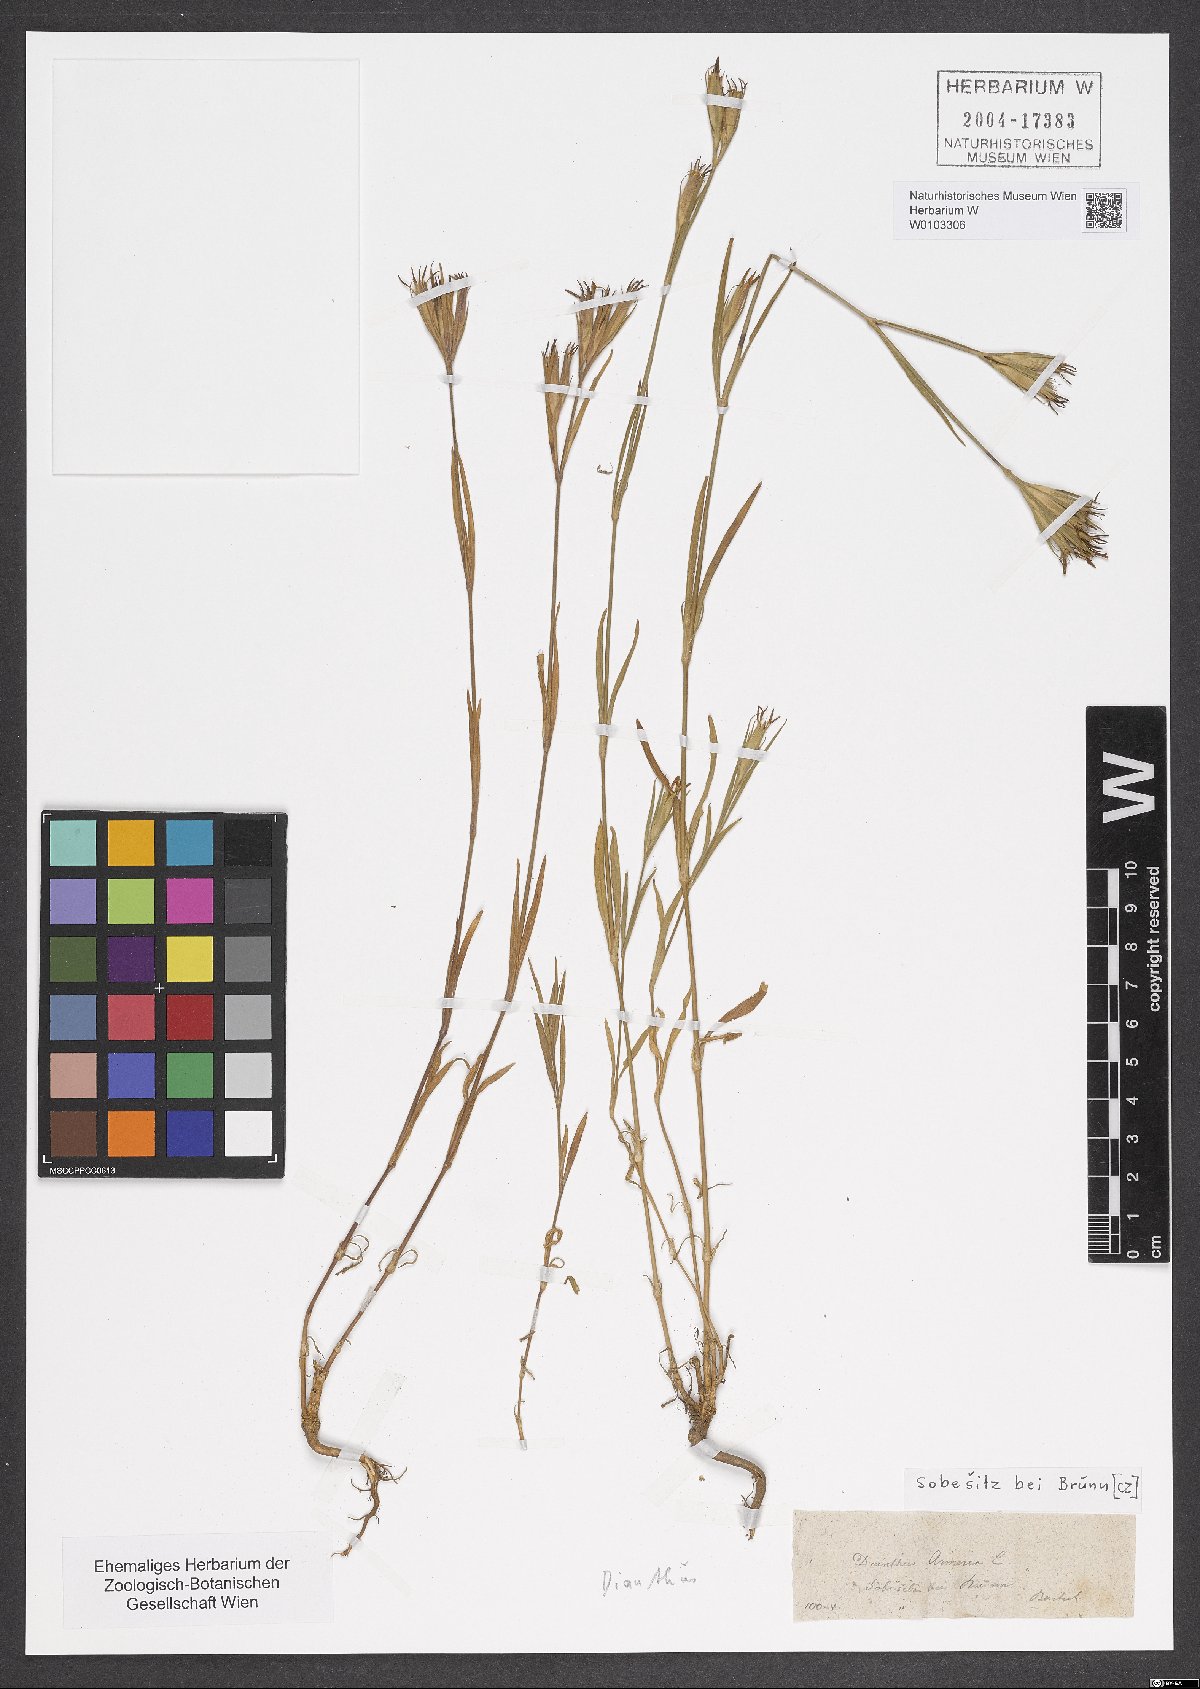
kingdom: Plantae
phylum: Tracheophyta
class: Magnoliopsida
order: Caryophyllales
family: Caryophyllaceae
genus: Dianthus
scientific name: Dianthus armeria
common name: Deptford pink
